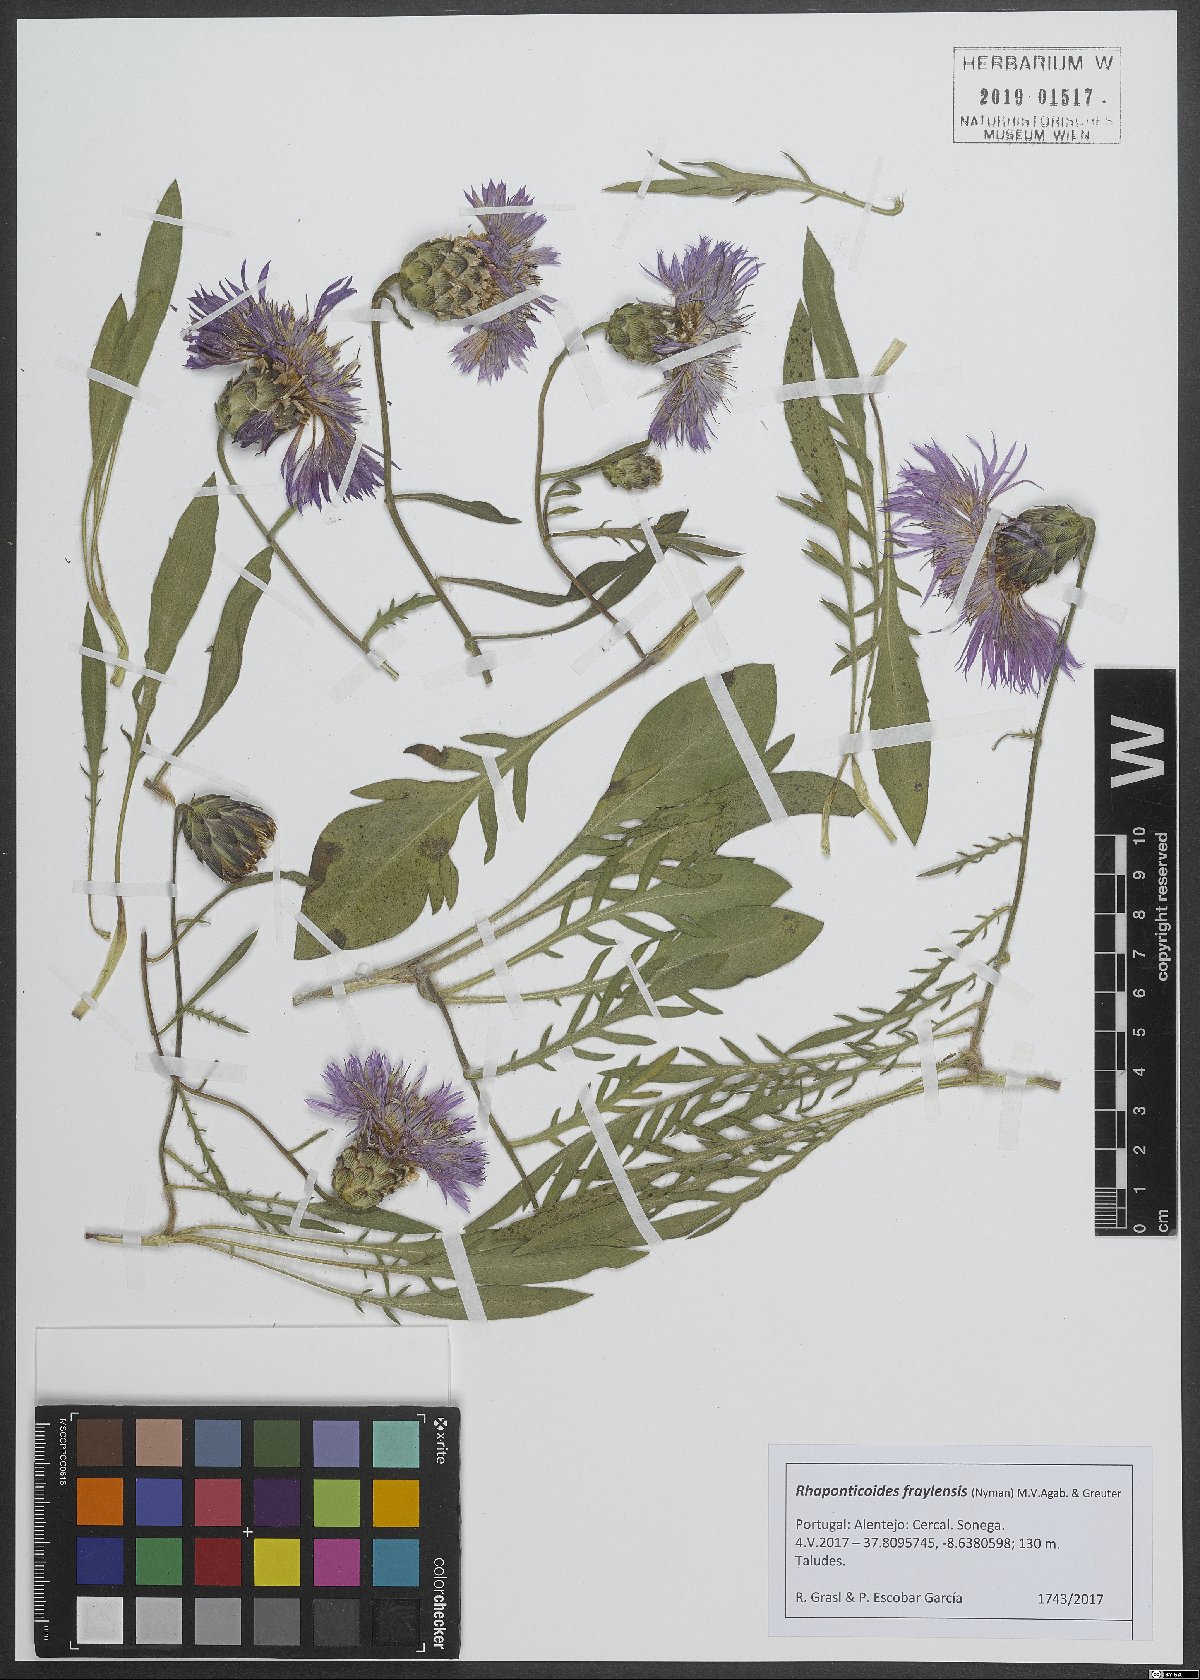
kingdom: Plantae
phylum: Tracheophyta
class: Magnoliopsida
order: Asterales
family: Asteraceae
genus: Rhaponticoides
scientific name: Rhaponticoides fraylensis
